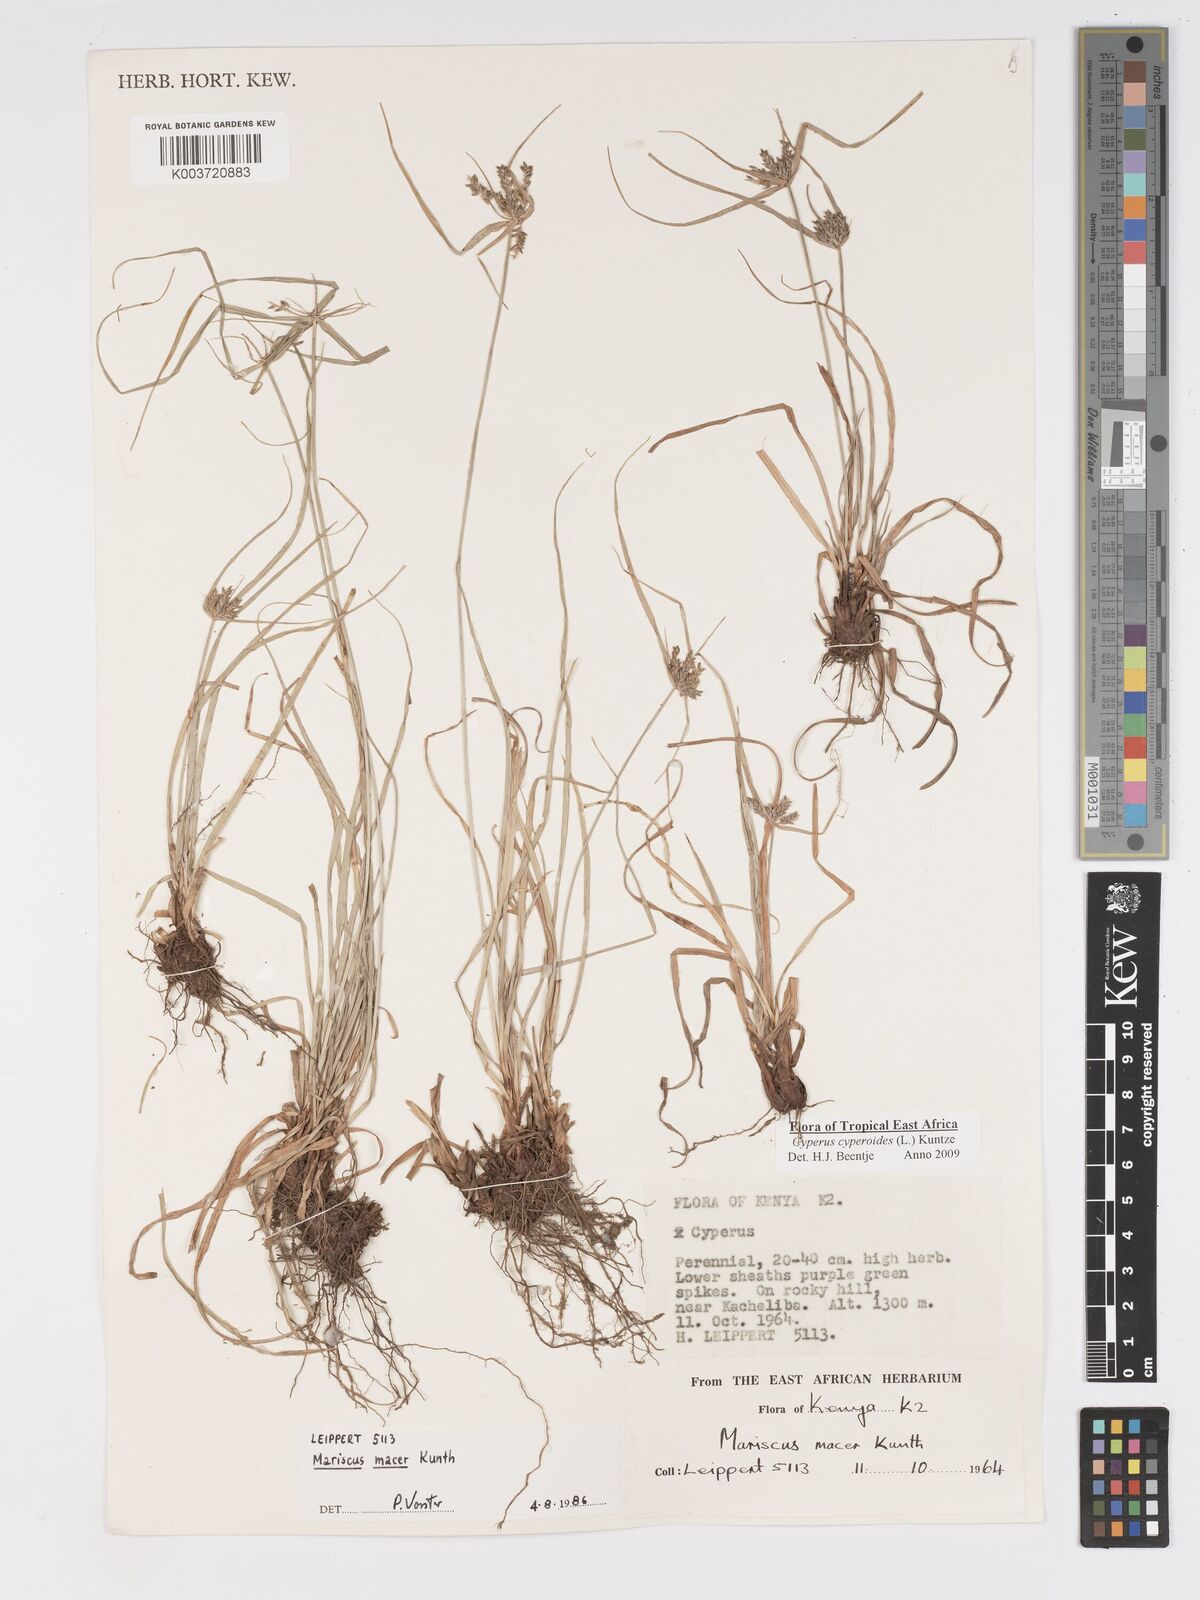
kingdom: Plantae
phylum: Tracheophyta
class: Liliopsida
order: Poales
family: Cyperaceae
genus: Cyperus
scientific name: Cyperus macrocarpus
